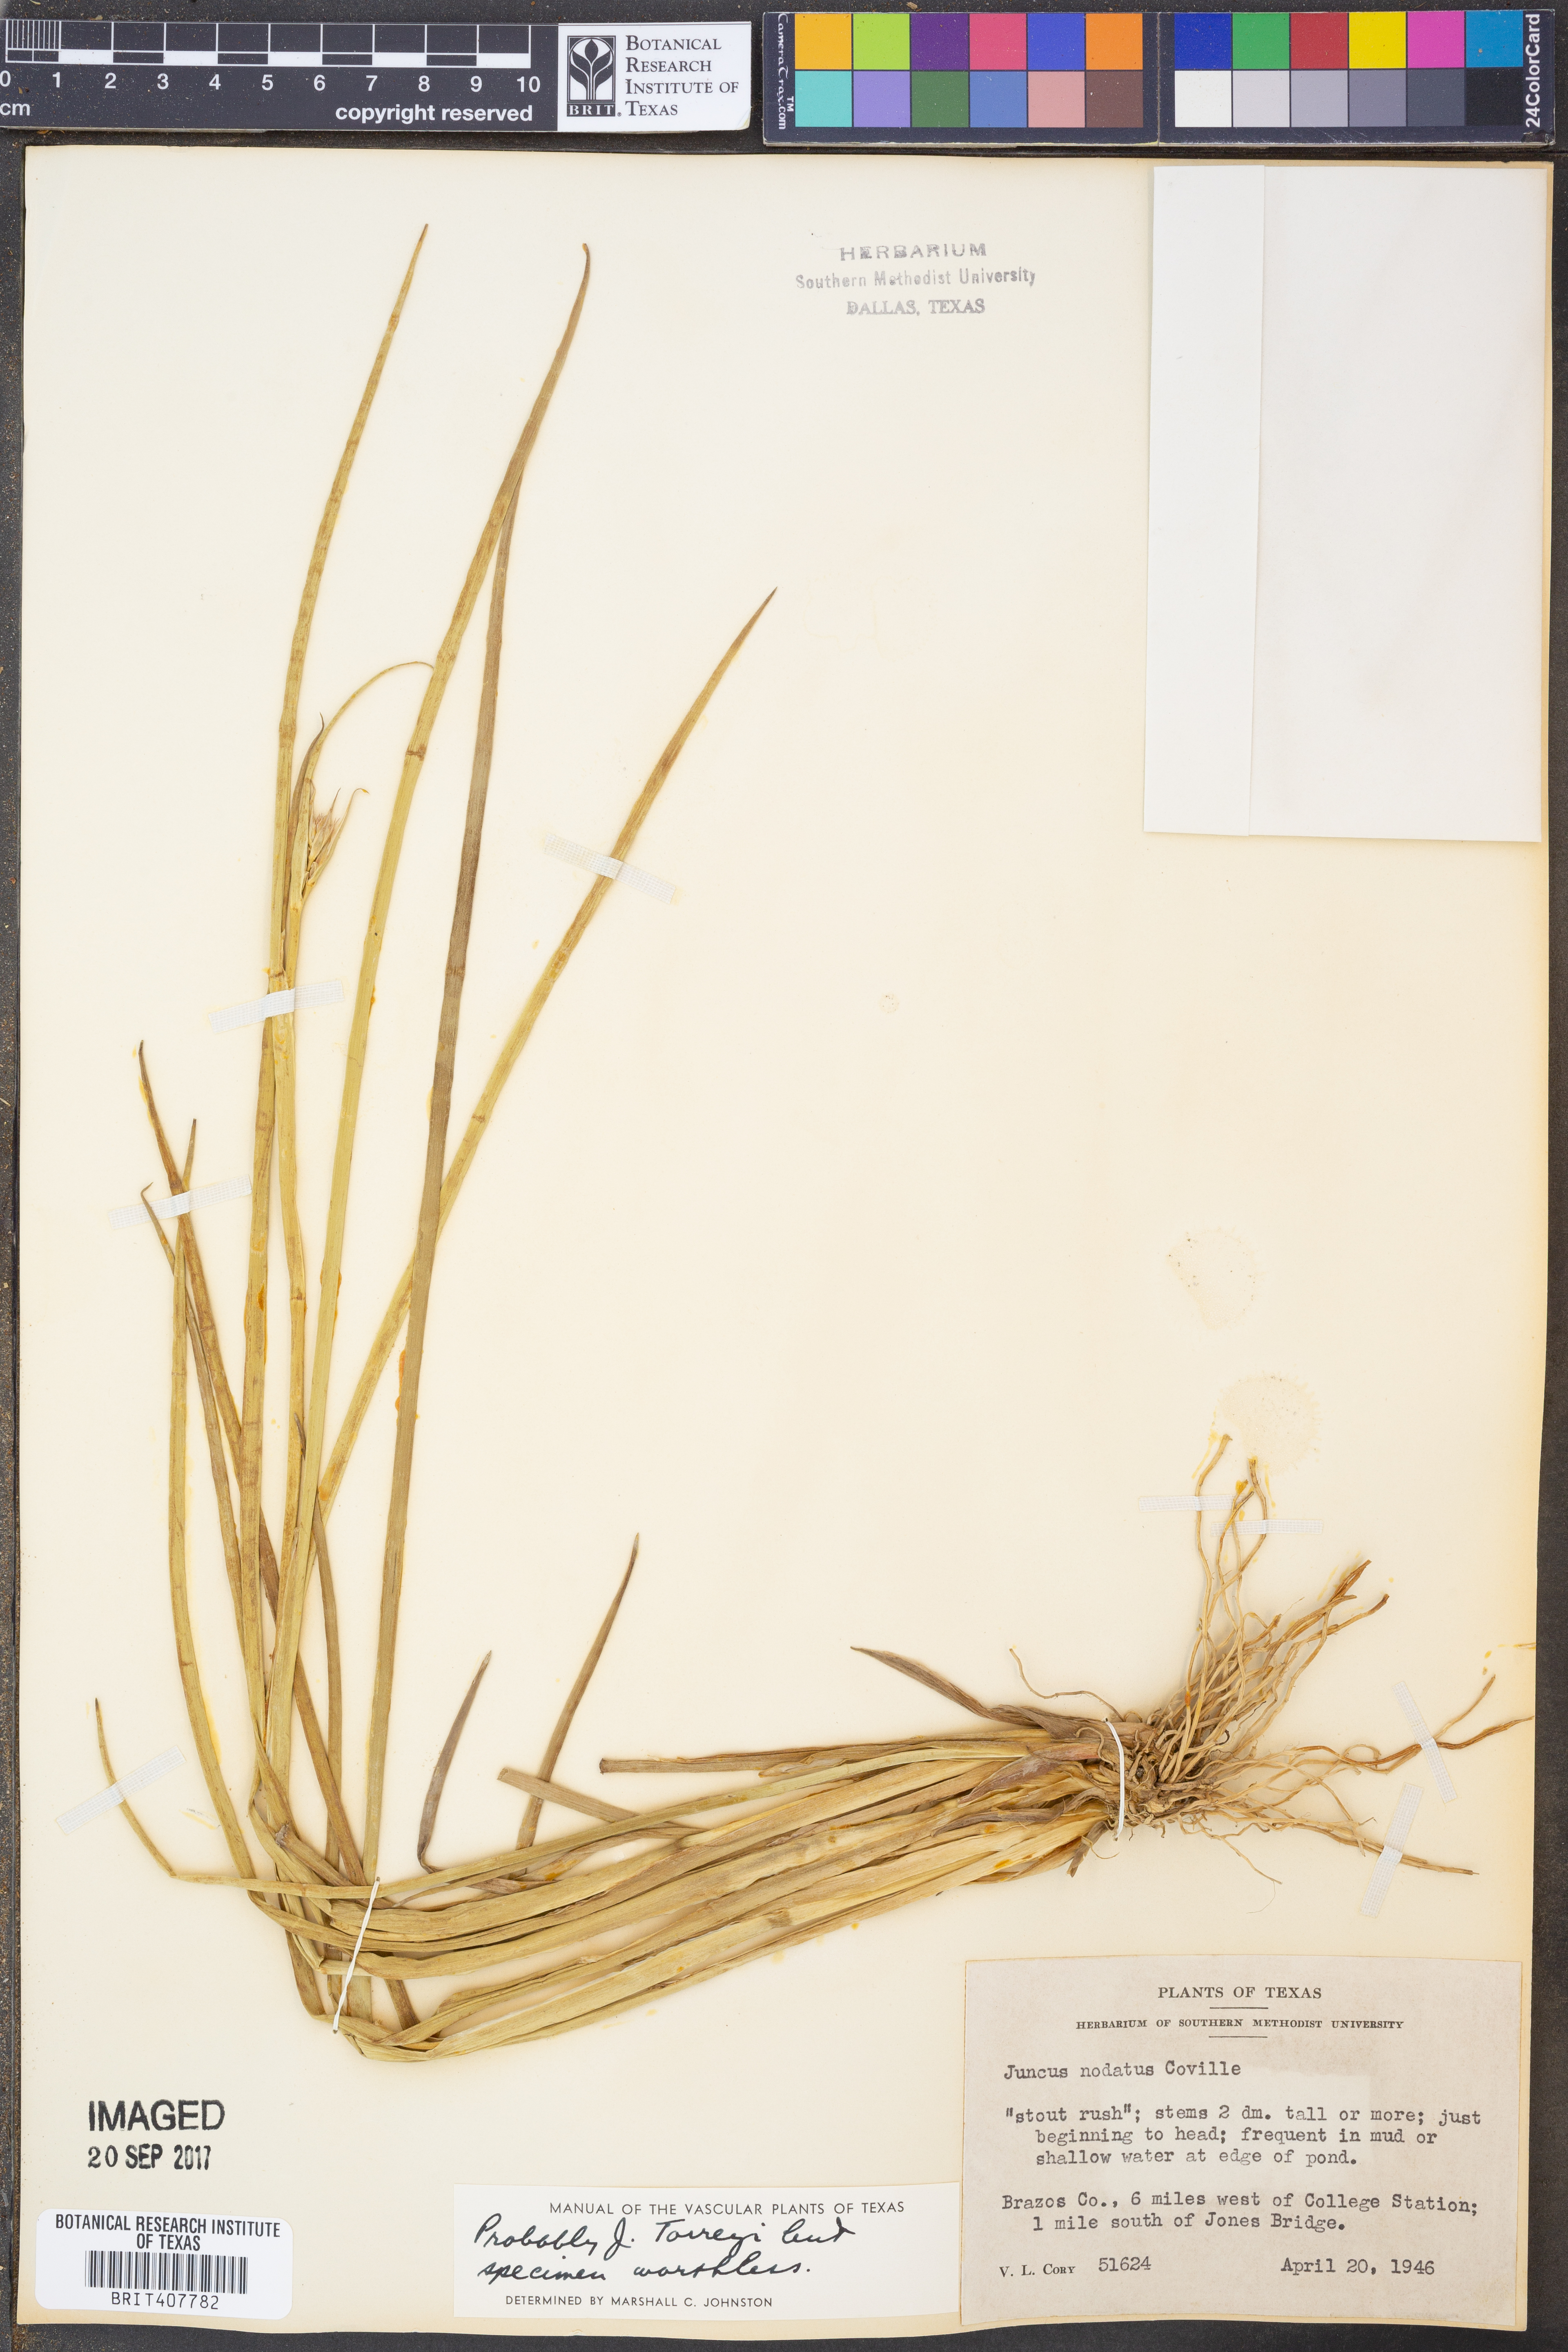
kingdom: Plantae
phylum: Tracheophyta
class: Liliopsida
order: Poales
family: Juncaceae
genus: Juncus
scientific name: Juncus nodatus
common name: Stout rush
